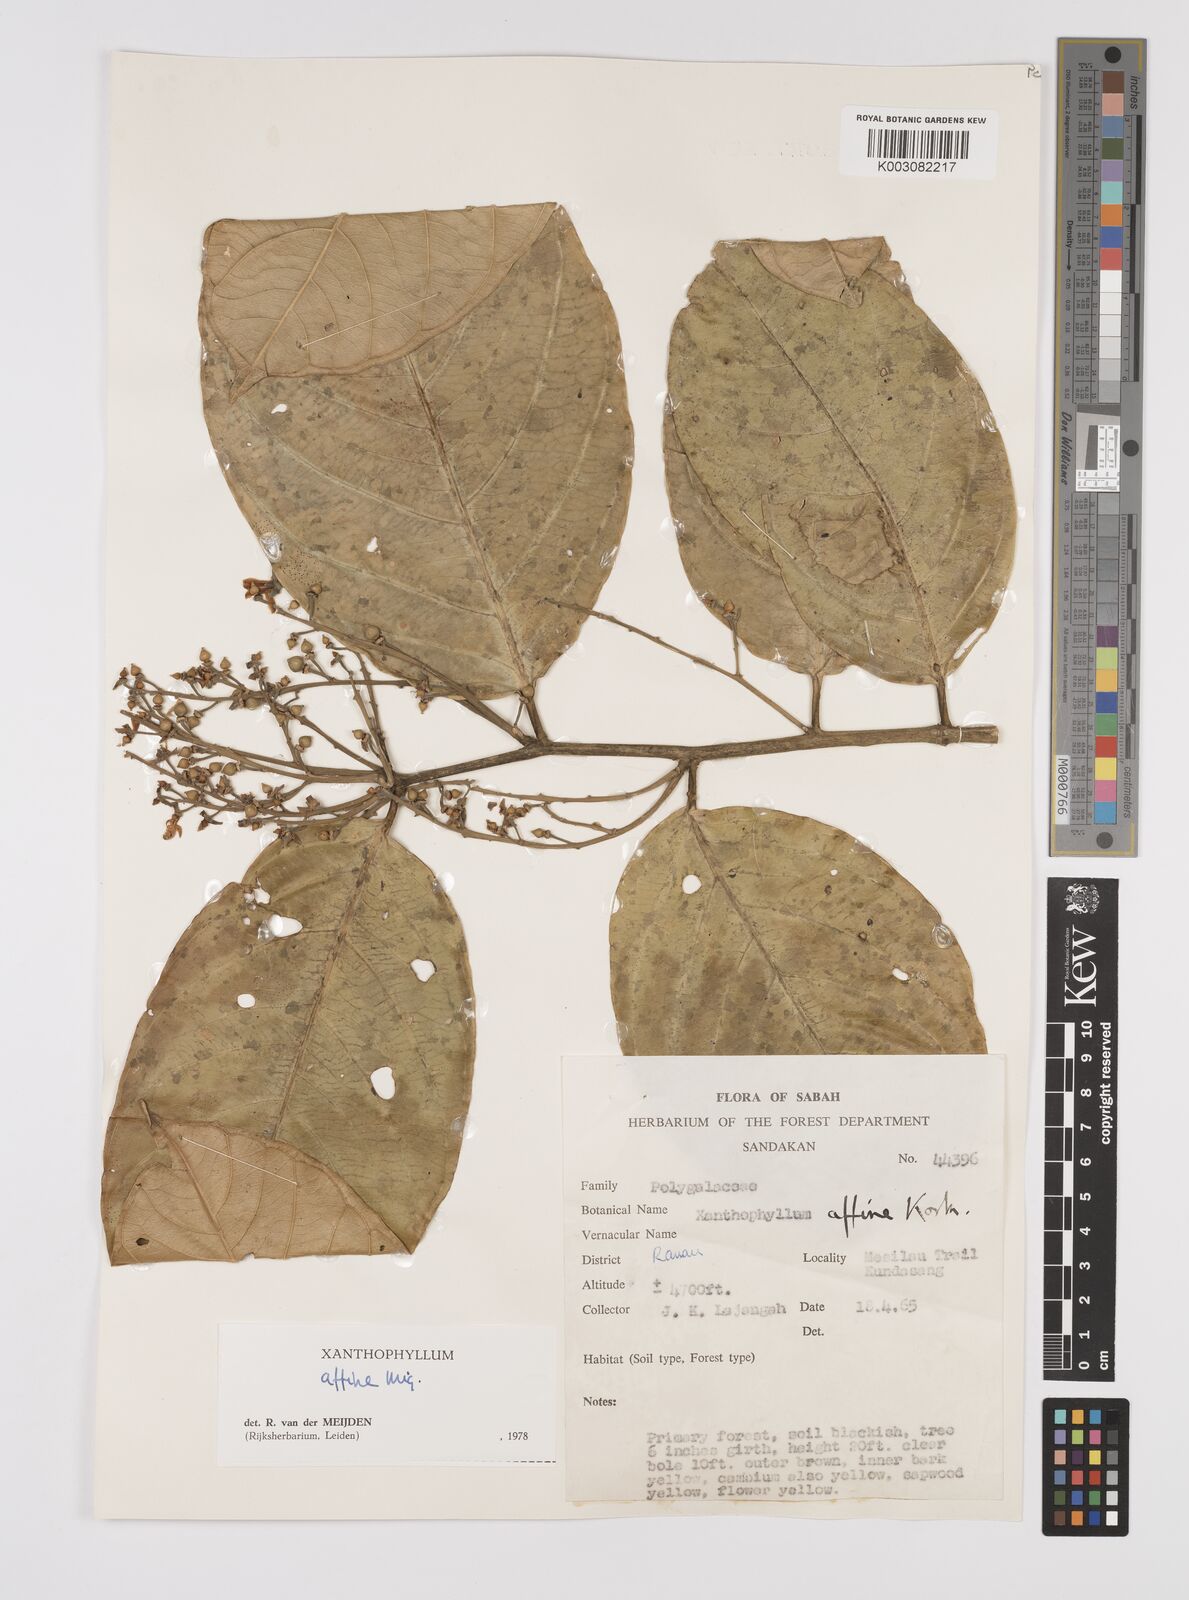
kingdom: Plantae
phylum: Tracheophyta
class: Magnoliopsida
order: Fabales
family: Polygalaceae
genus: Xanthophyllum
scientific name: Xanthophyllum flavescens
